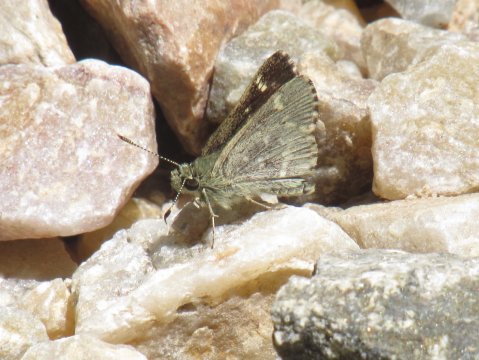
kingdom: Animalia
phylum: Arthropoda
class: Insecta
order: Lepidoptera
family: Hesperiidae
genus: Mastor
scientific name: Mastor hegon
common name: Pepper and Salt Skipper
